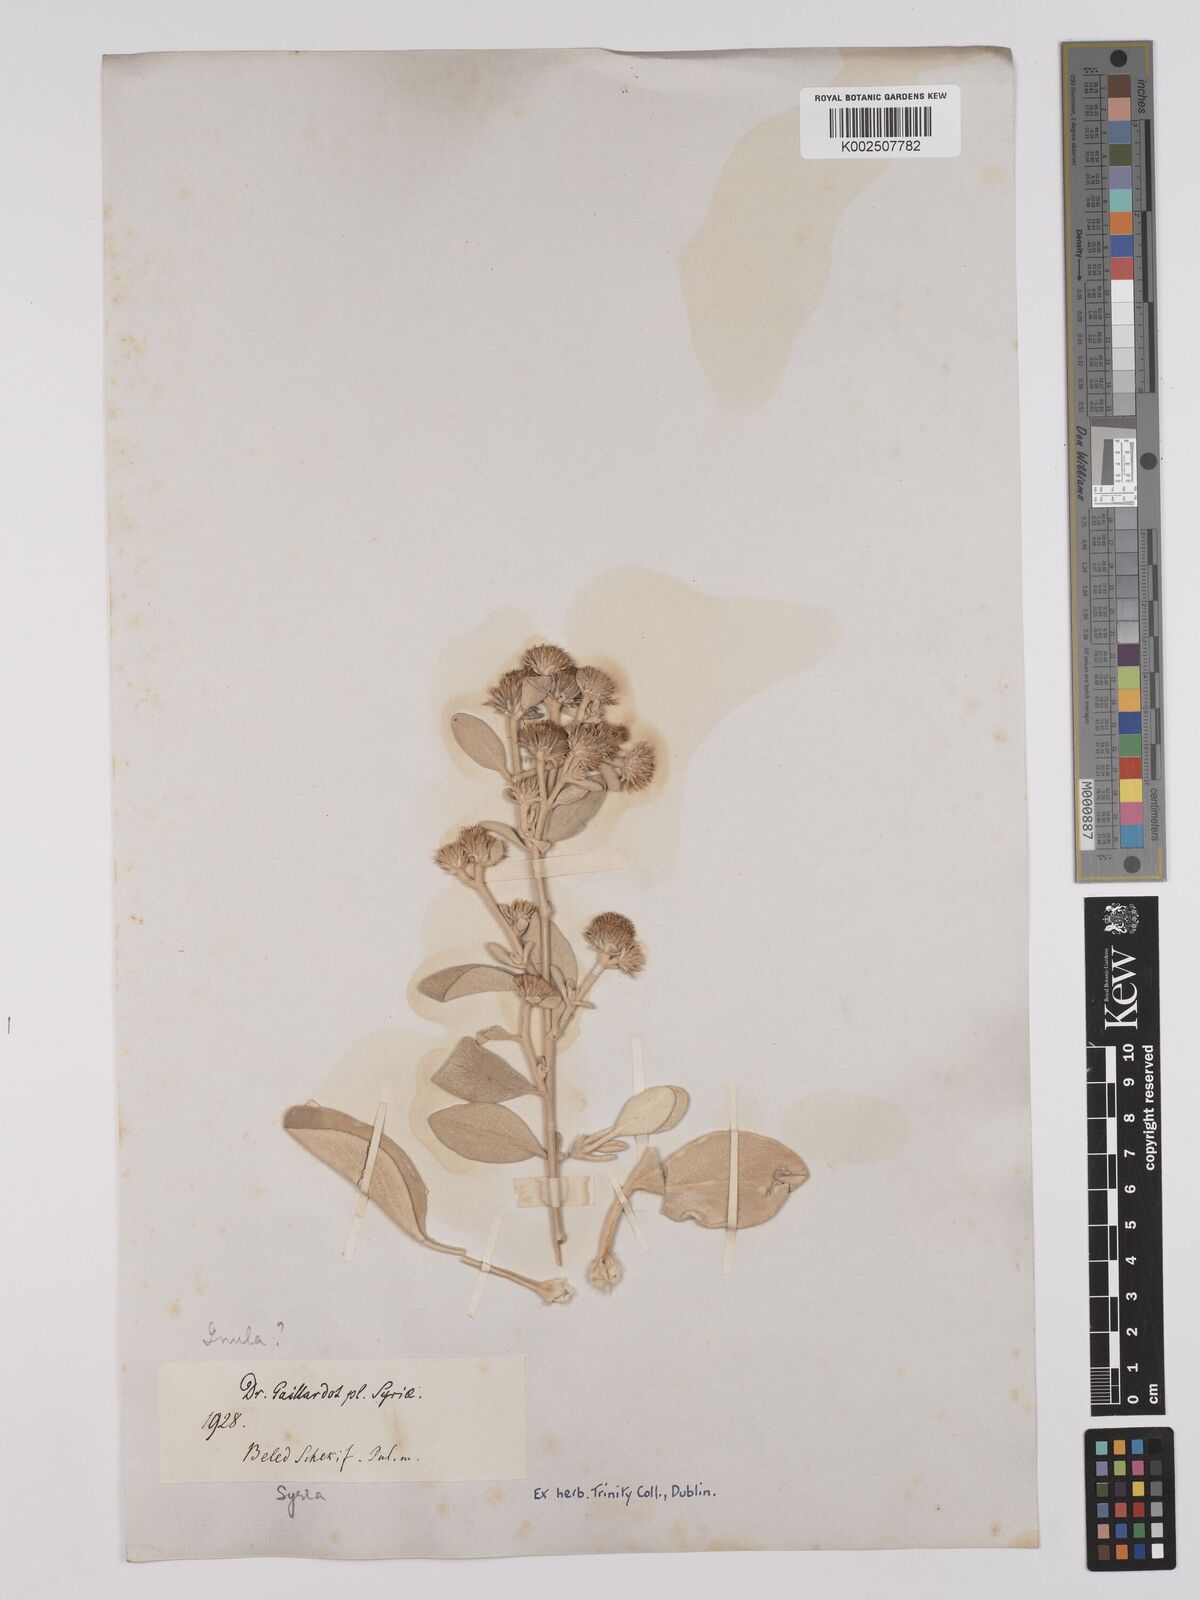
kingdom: Plantae
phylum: Tracheophyta
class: Magnoliopsida
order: Asterales
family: Asteraceae
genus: Pentanema
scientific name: Pentanema verbascifolium
